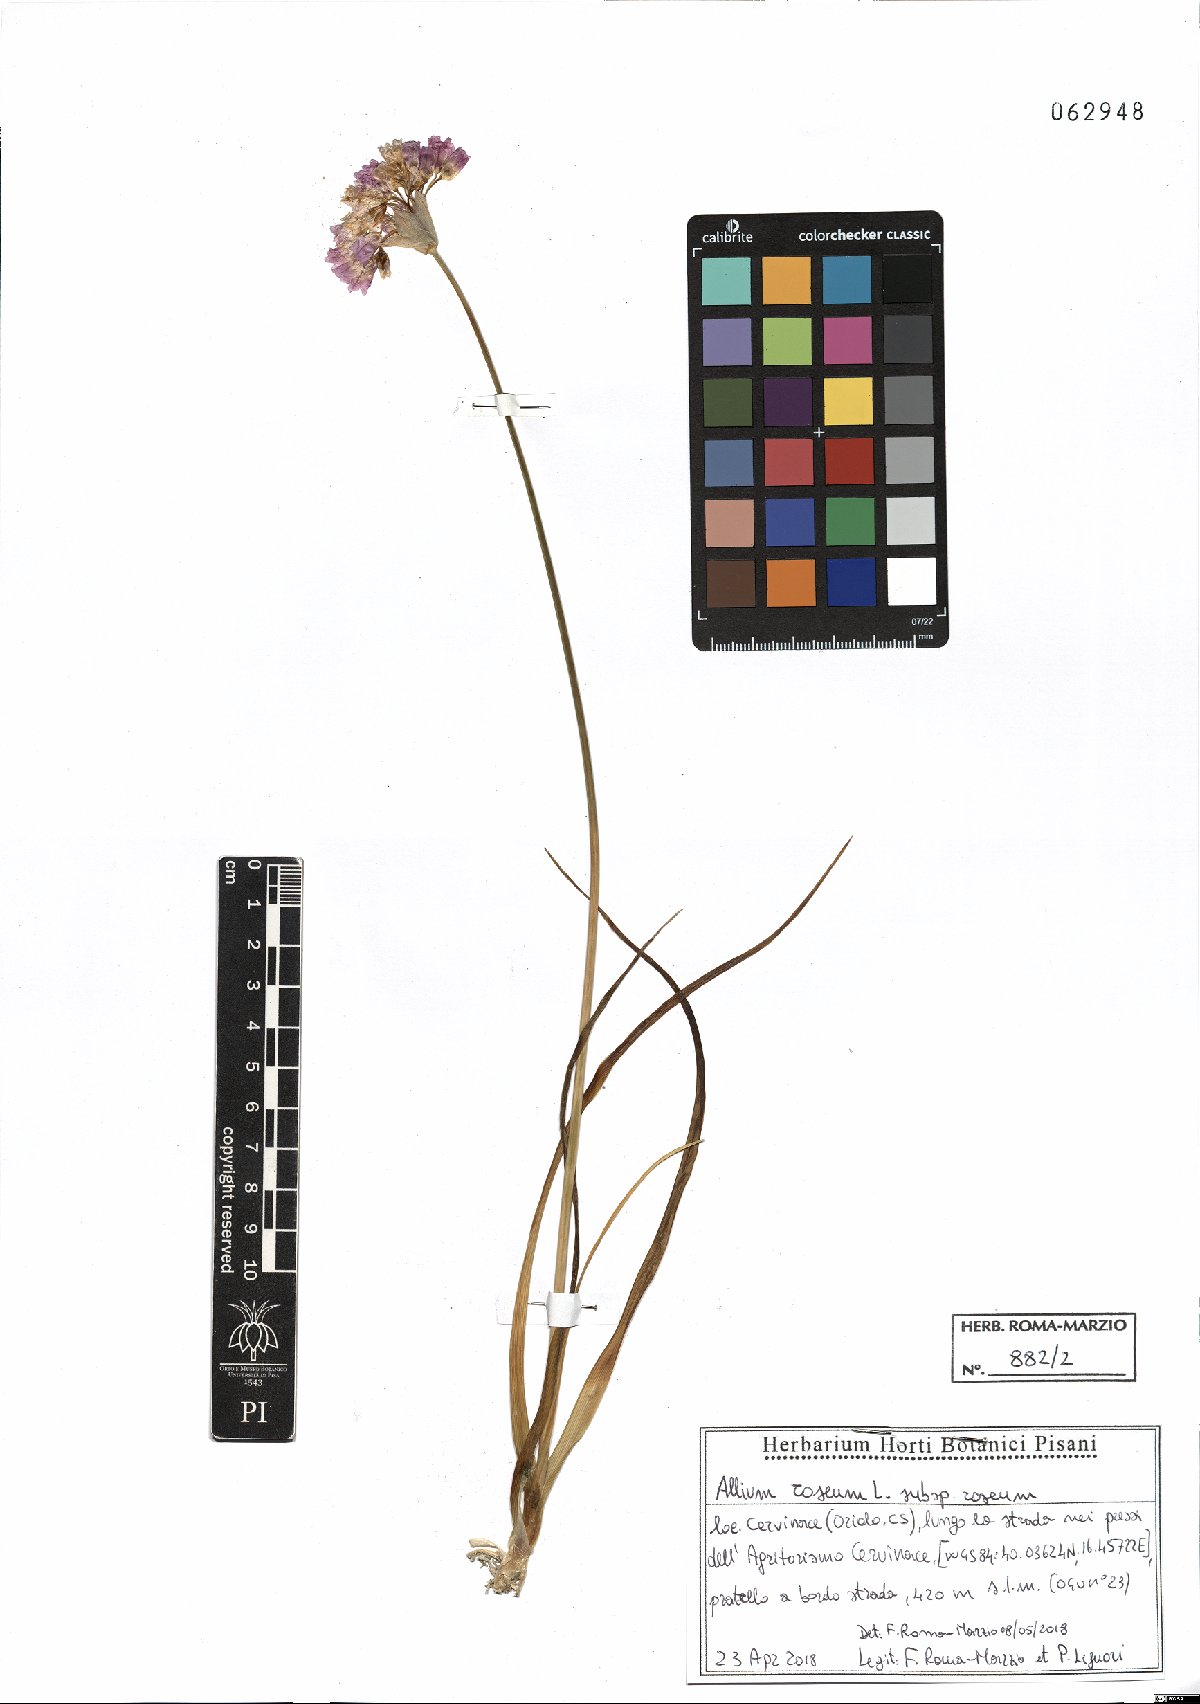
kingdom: Plantae
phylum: Tracheophyta
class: Liliopsida
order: Asparagales
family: Amaryllidaceae
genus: Allium
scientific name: Allium roseum
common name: Rosy garlic
